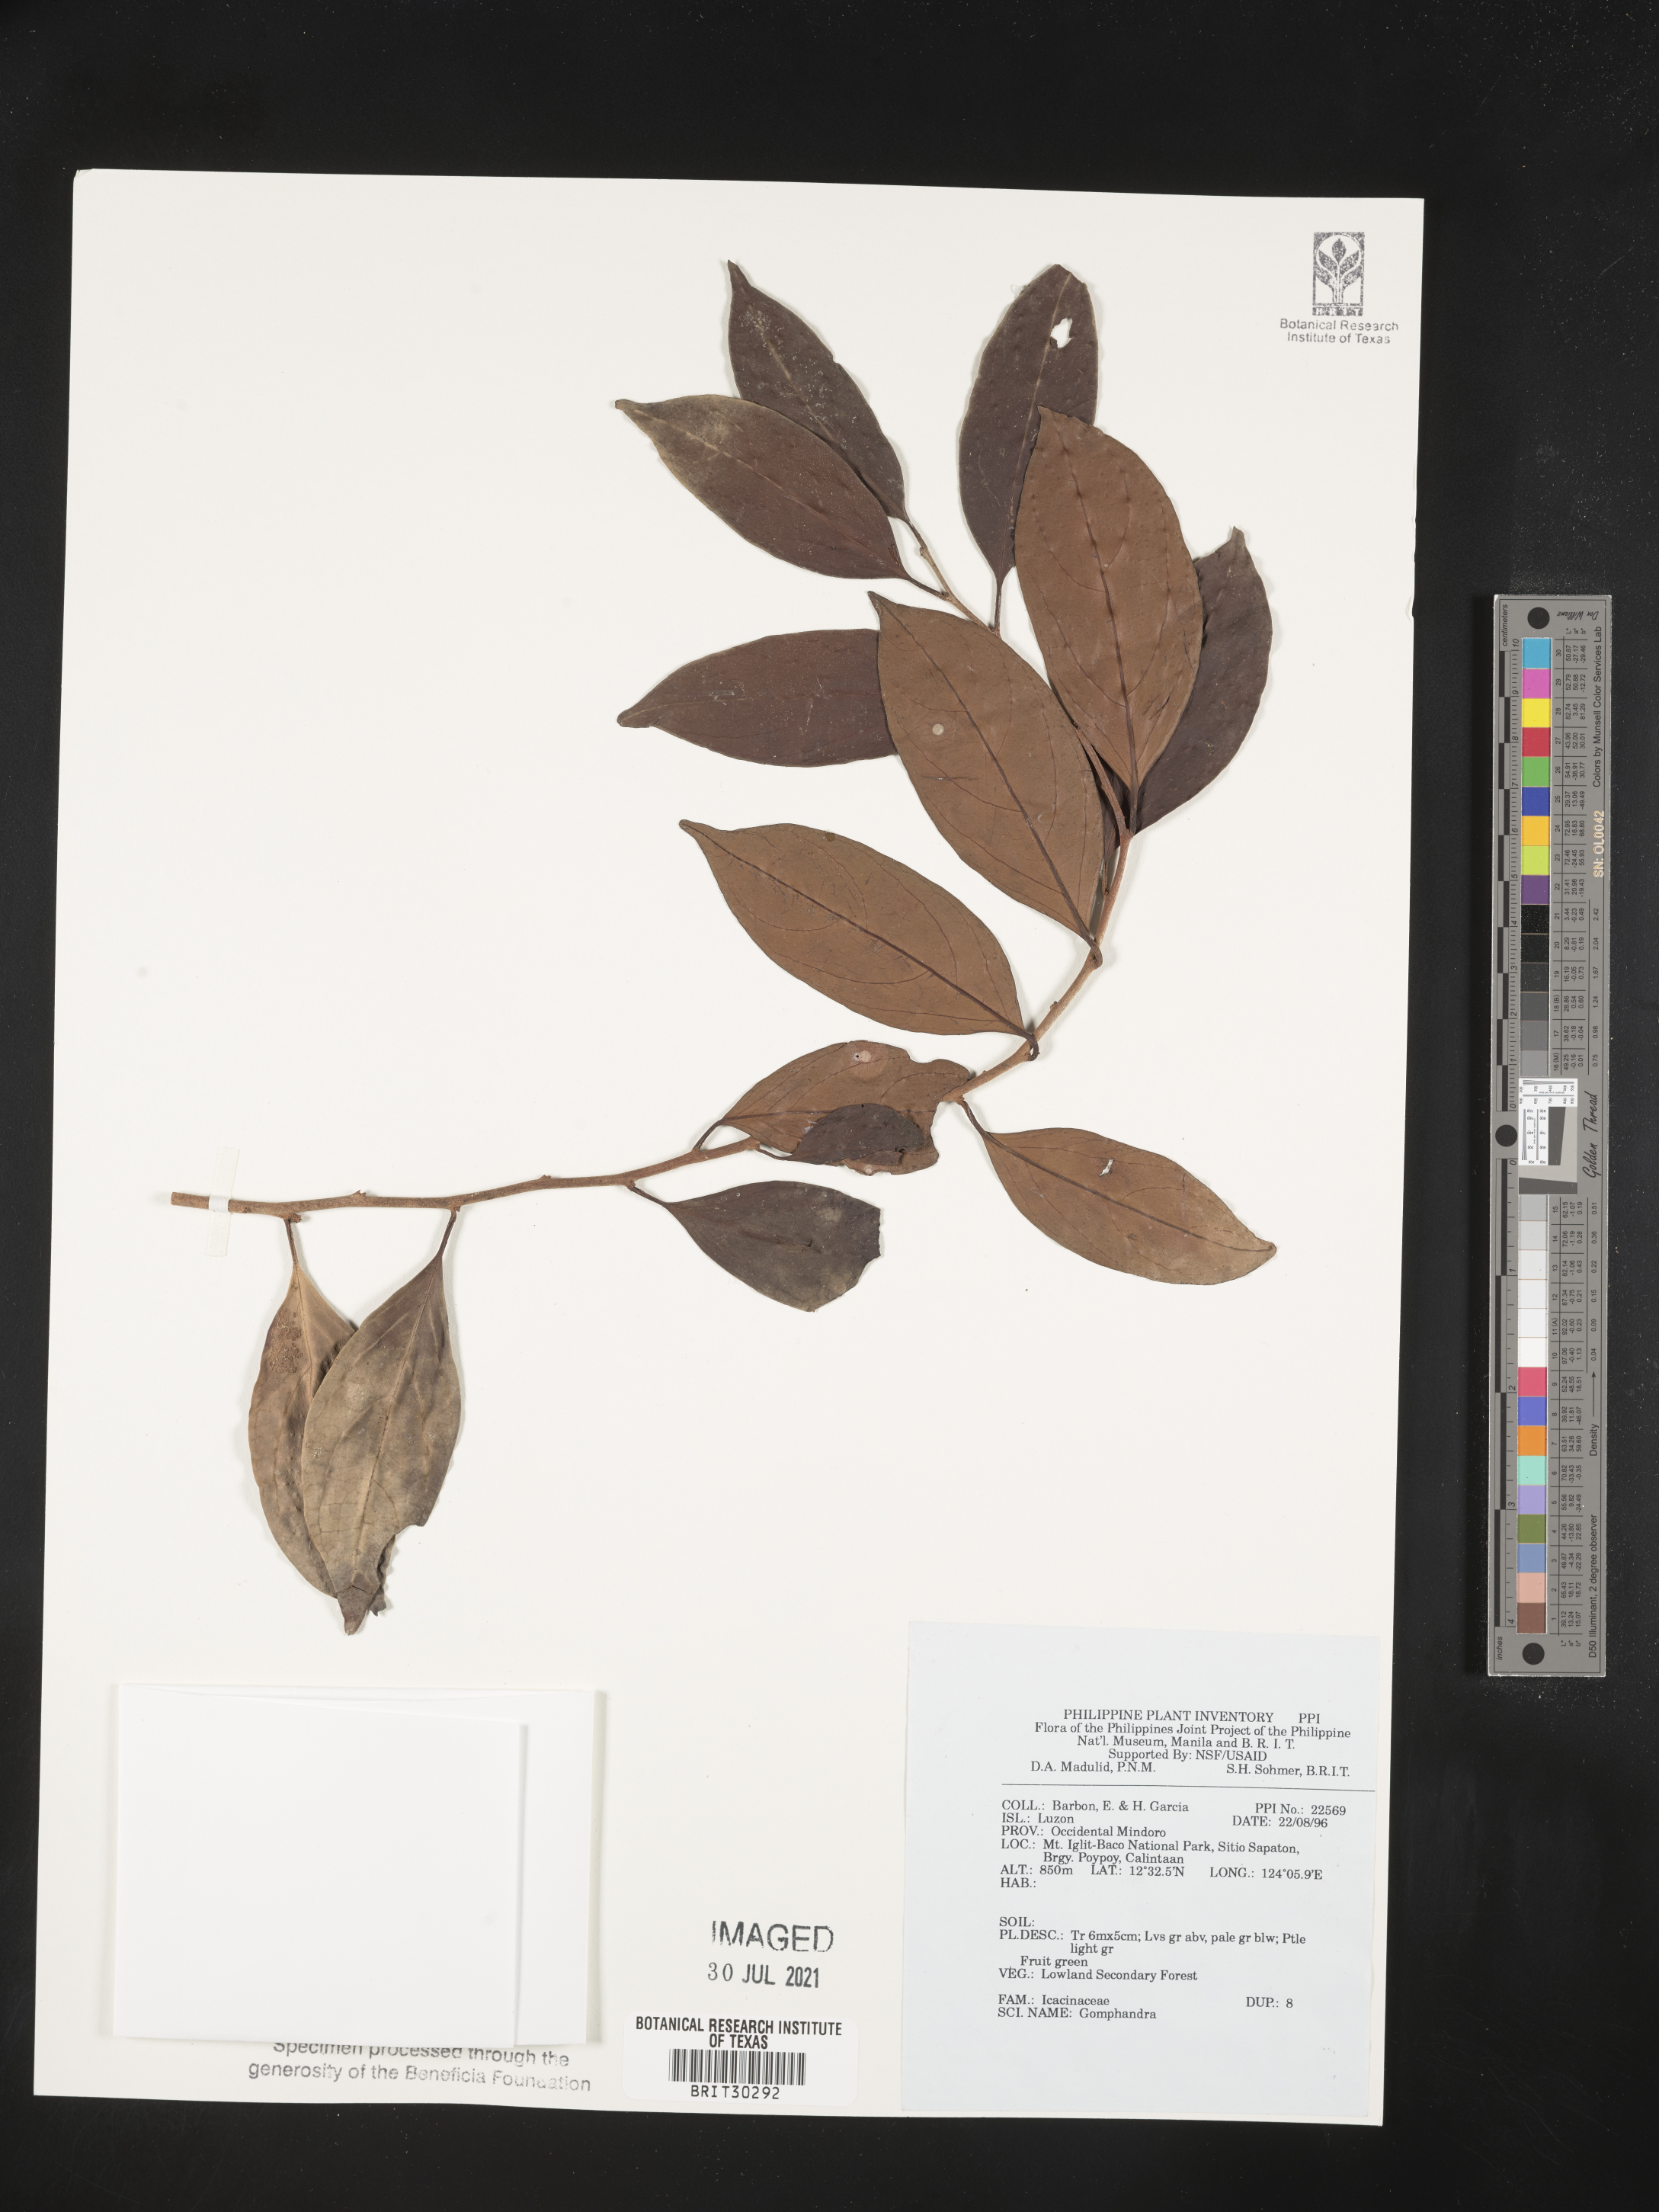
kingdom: Plantae
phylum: Tracheophyta
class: Magnoliopsida
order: Cardiopteridales
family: Stemonuraceae
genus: Gomphandra
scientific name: Gomphandra
